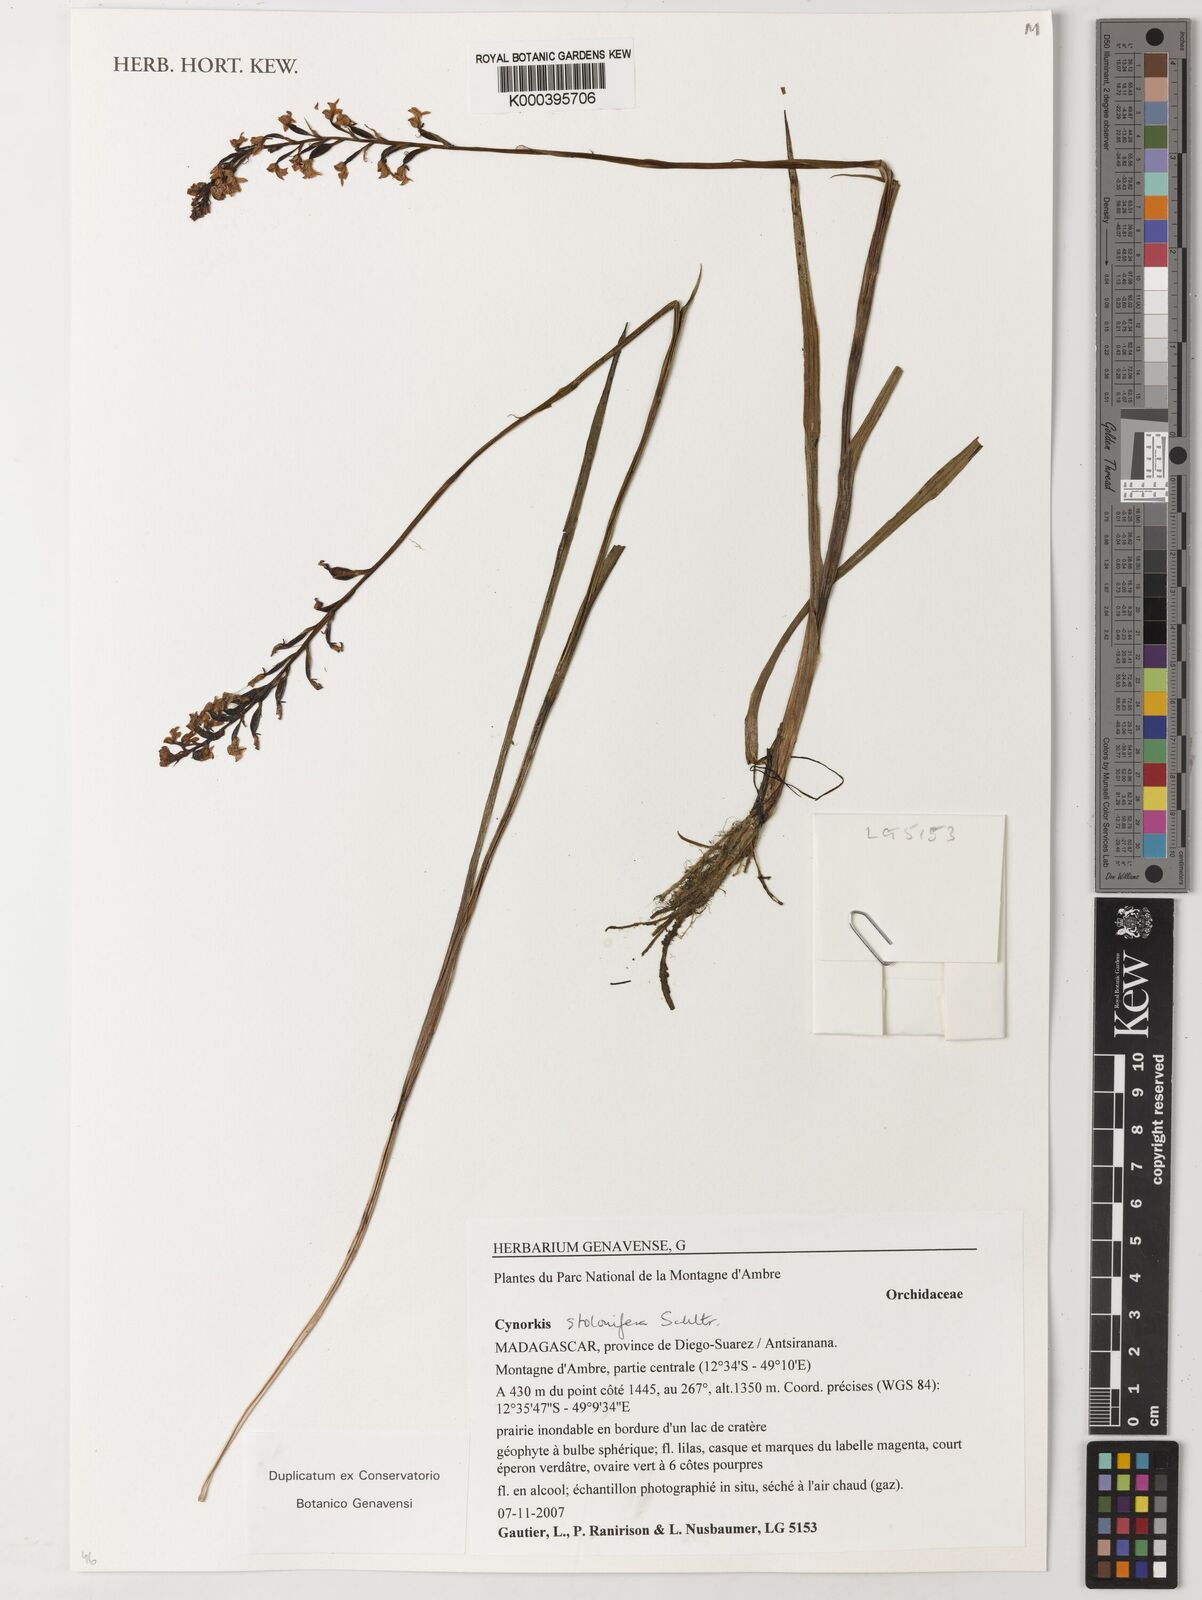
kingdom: Plantae
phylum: Tracheophyta
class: Liliopsida
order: Asparagales
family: Orchidaceae
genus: Cynorkis
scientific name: Cynorkis stolonifera
